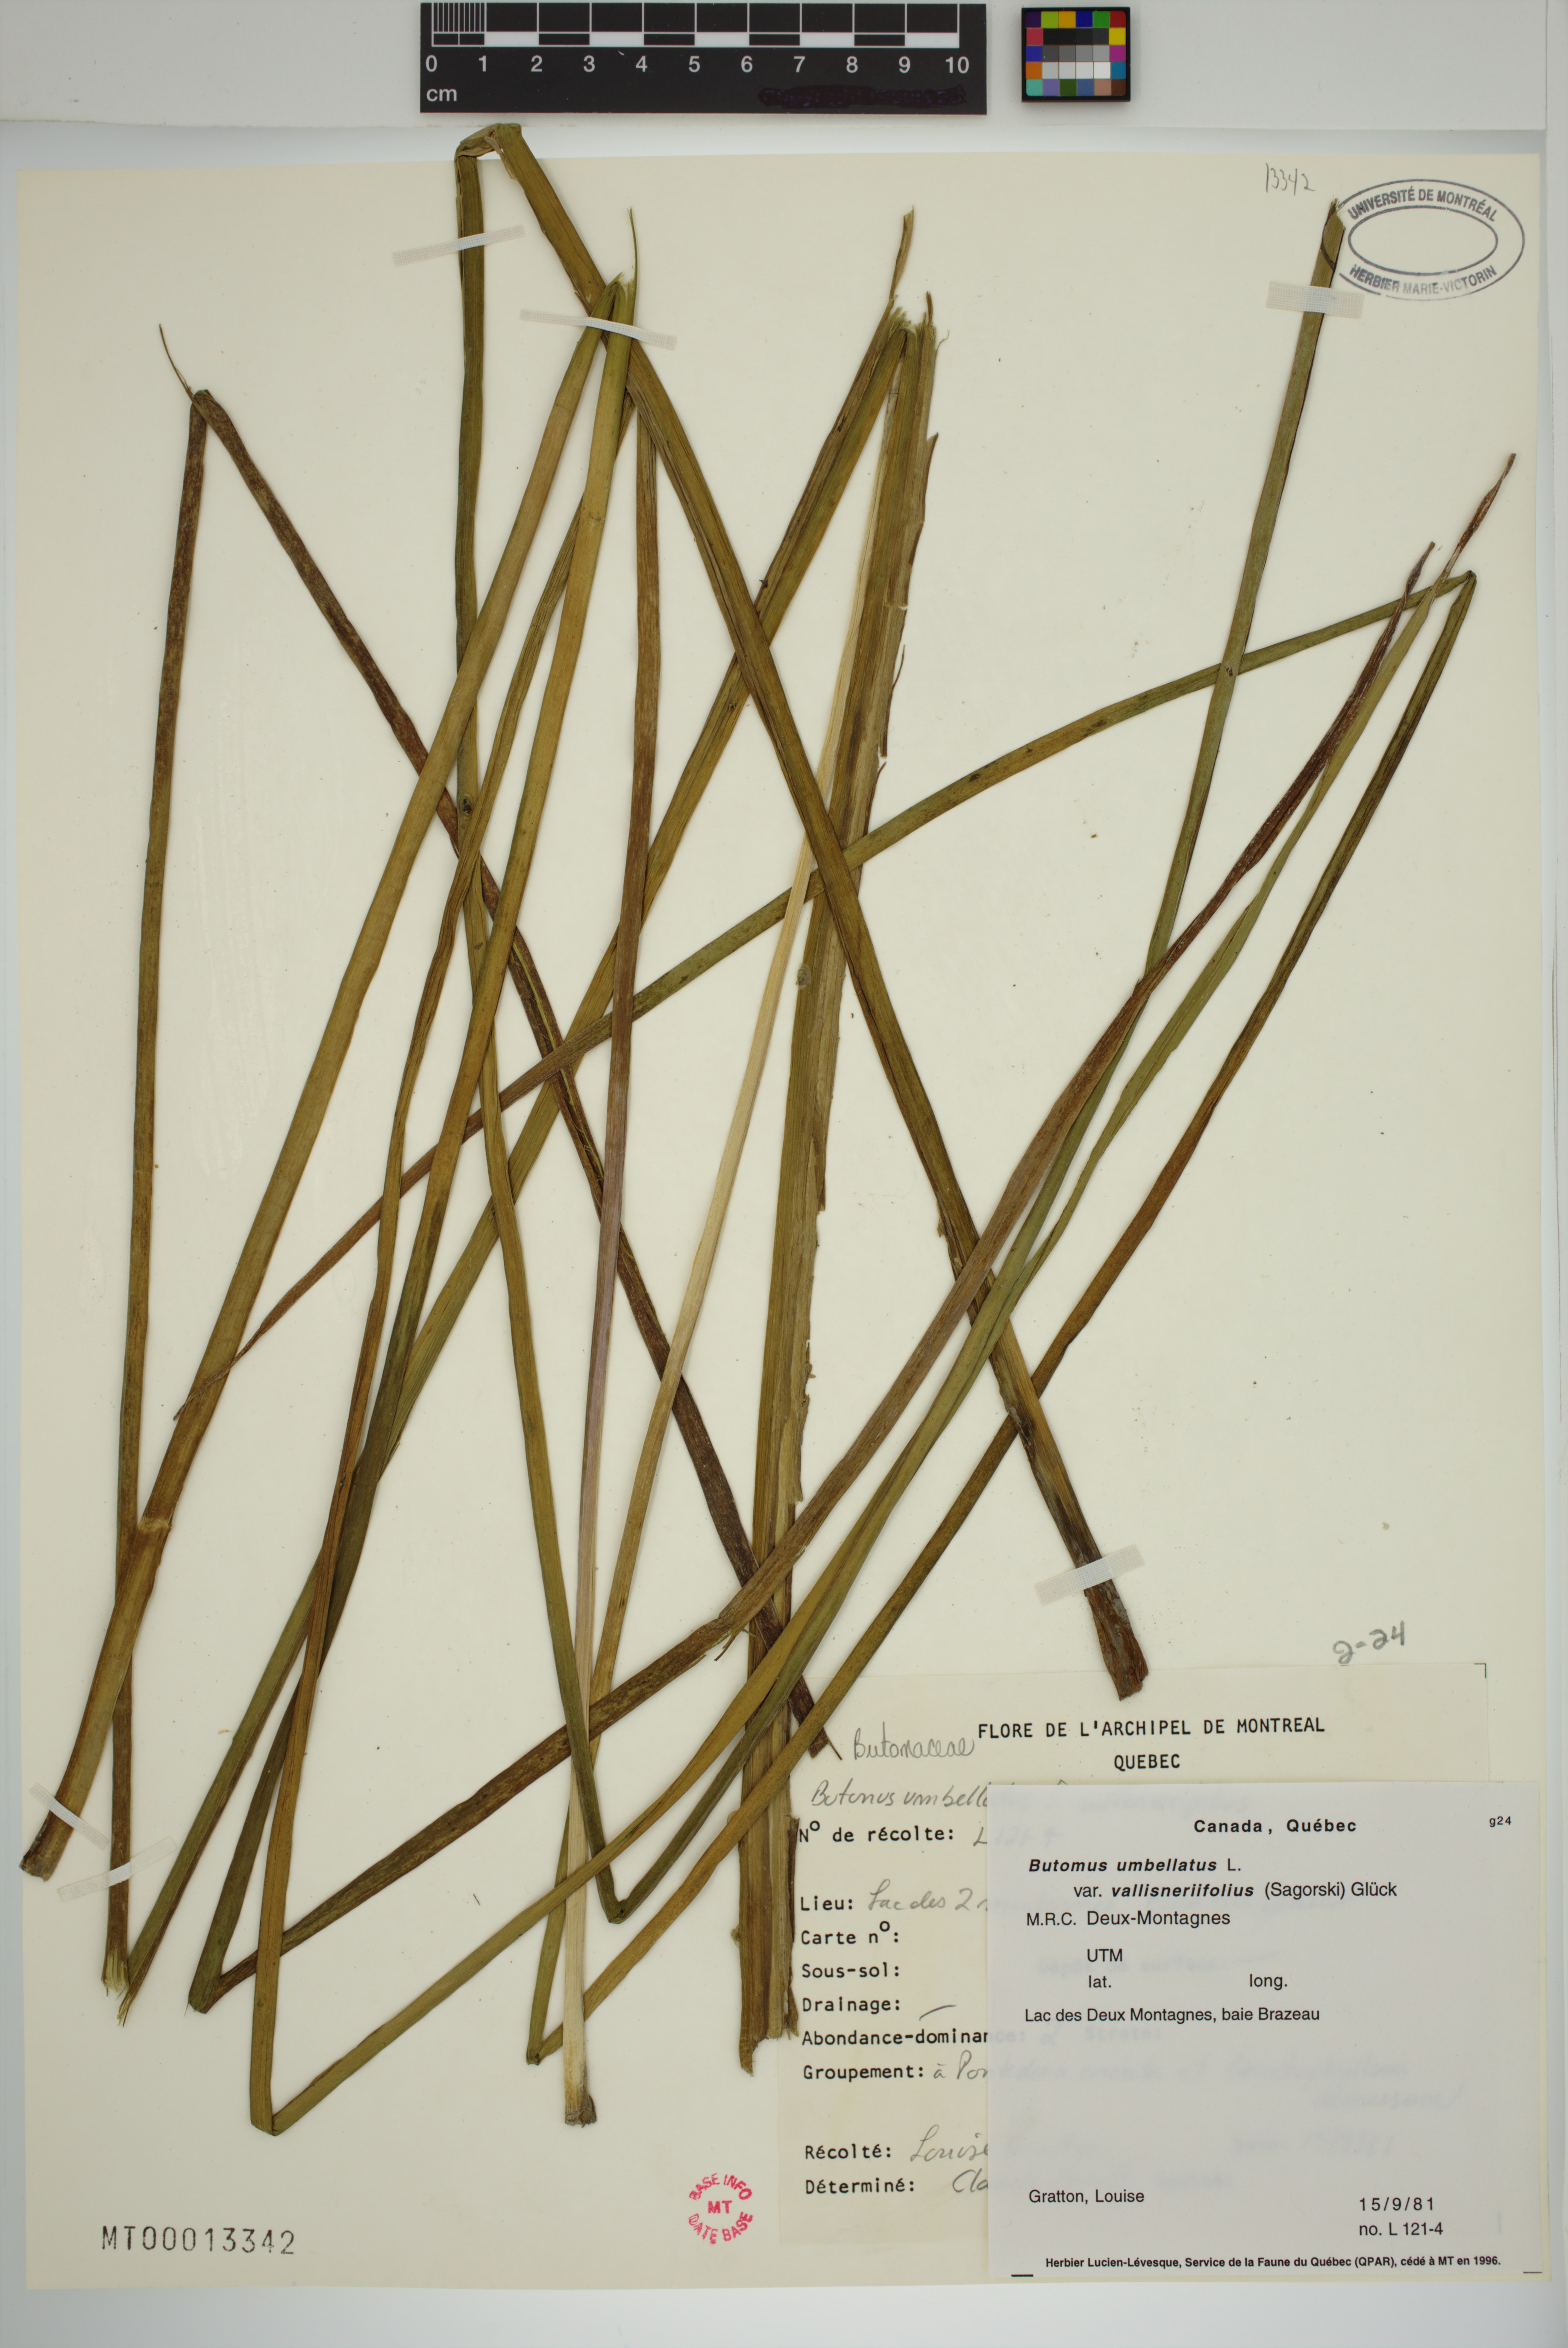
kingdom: Plantae
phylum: Tracheophyta
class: Liliopsida
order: Alismatales
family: Butomaceae
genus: Butomus
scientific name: Butomus umbellatus
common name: Flowering-rush
